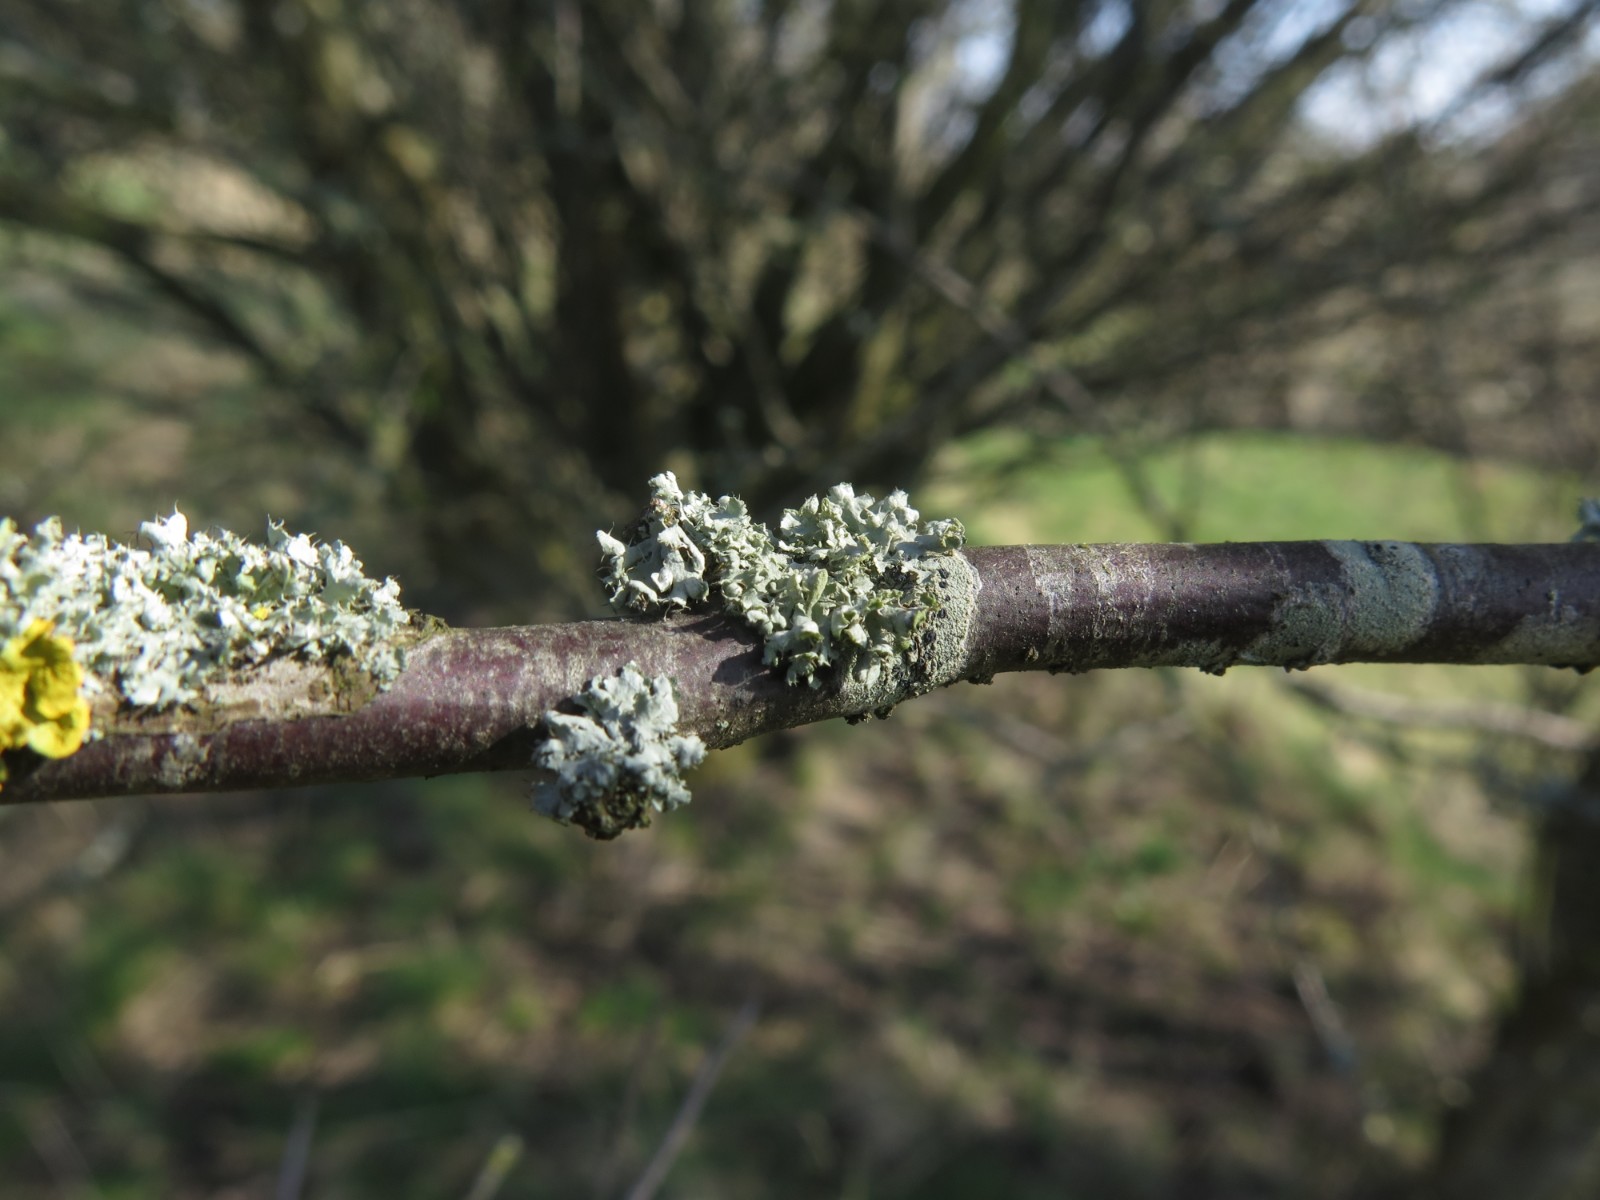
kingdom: Fungi
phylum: Ascomycota
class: Lecanoromycetes
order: Caliciales
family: Physciaceae
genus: Physcia
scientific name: Physcia adscendens
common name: hætte-rosetlav
